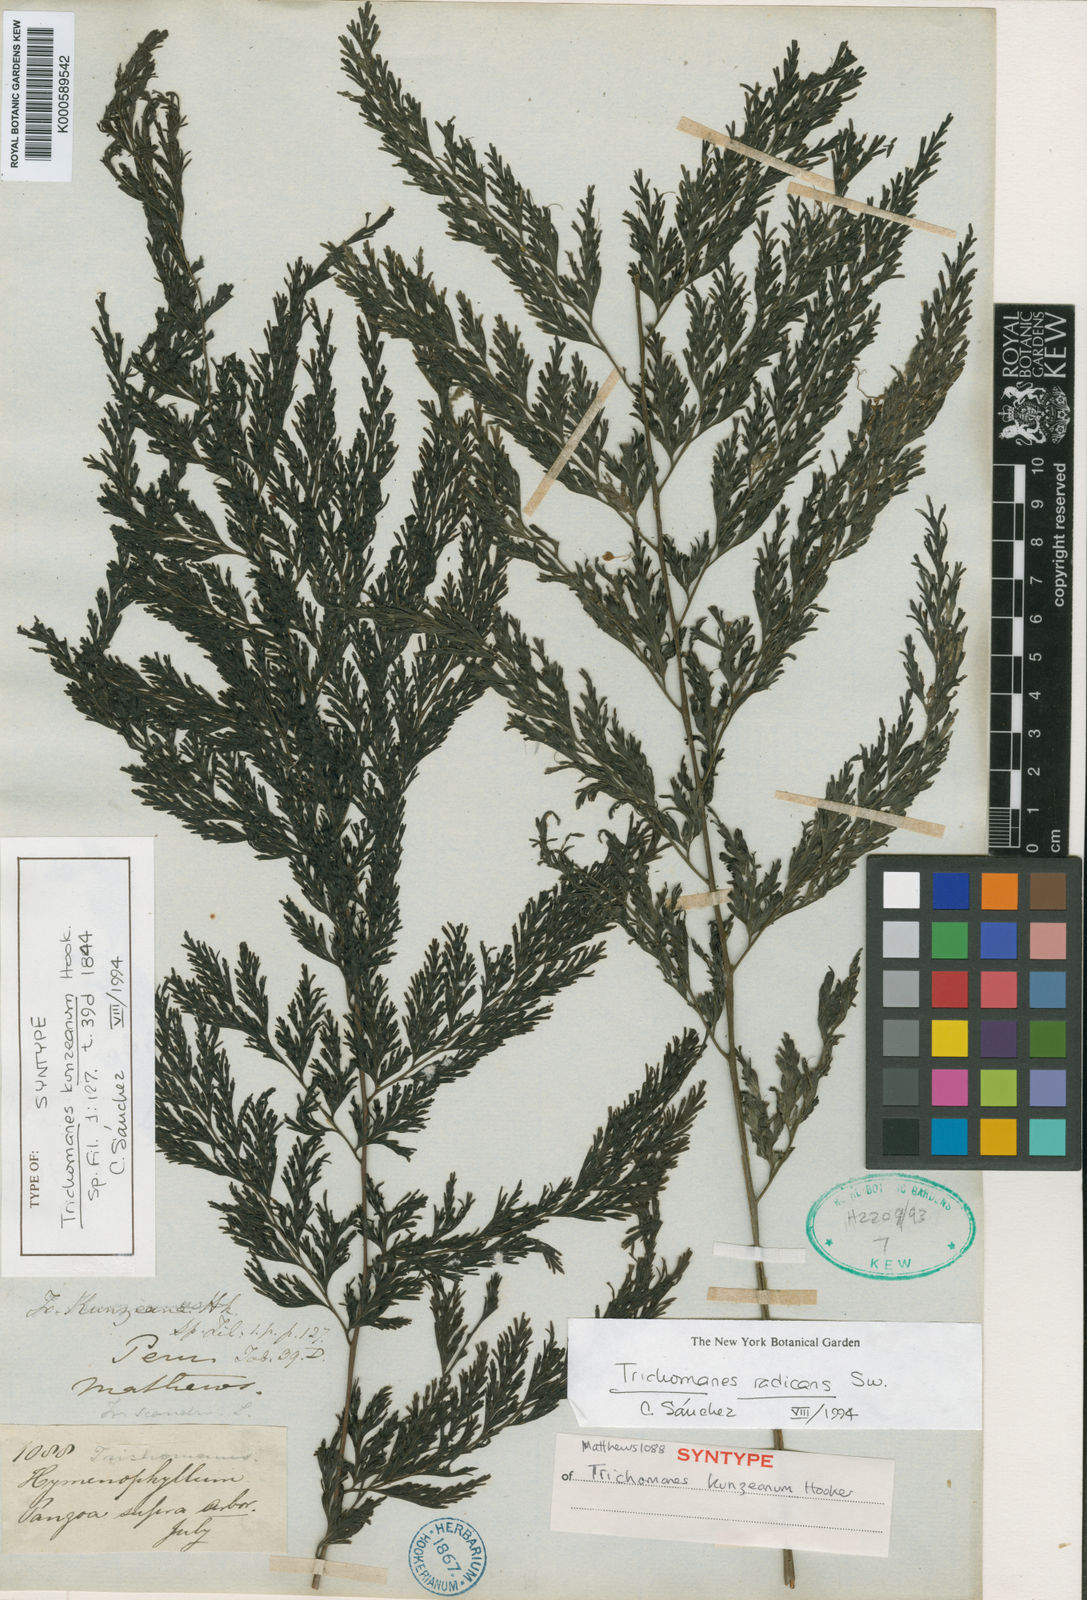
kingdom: Plantae
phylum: Tracheophyta
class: Polypodiopsida
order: Hymenophyllales
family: Hymenophyllaceae
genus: Vandenboschia
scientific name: Vandenboschia radicans
